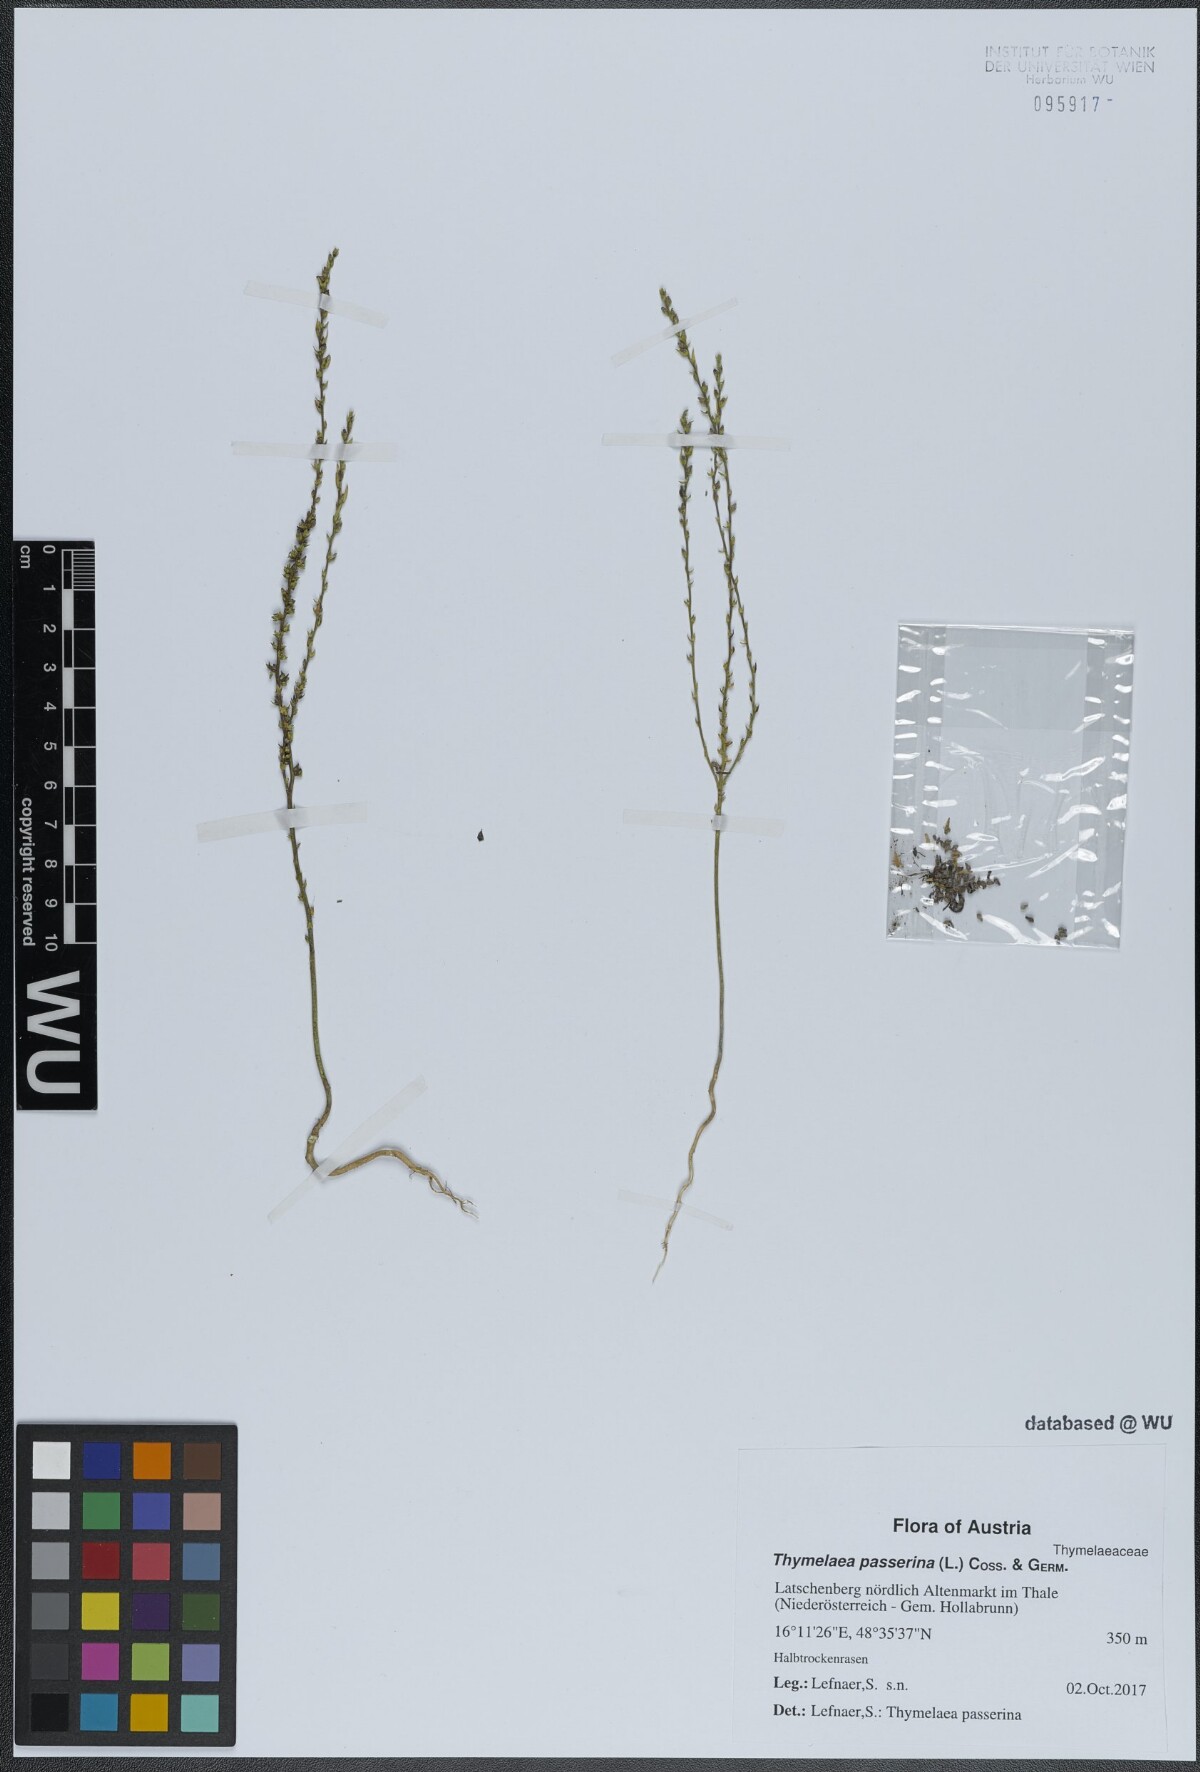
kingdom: Plantae
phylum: Tracheophyta
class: Magnoliopsida
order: Malvales
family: Thymelaeaceae
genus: Thymelaea
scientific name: Thymelaea passerina
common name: Annual thymelaea
